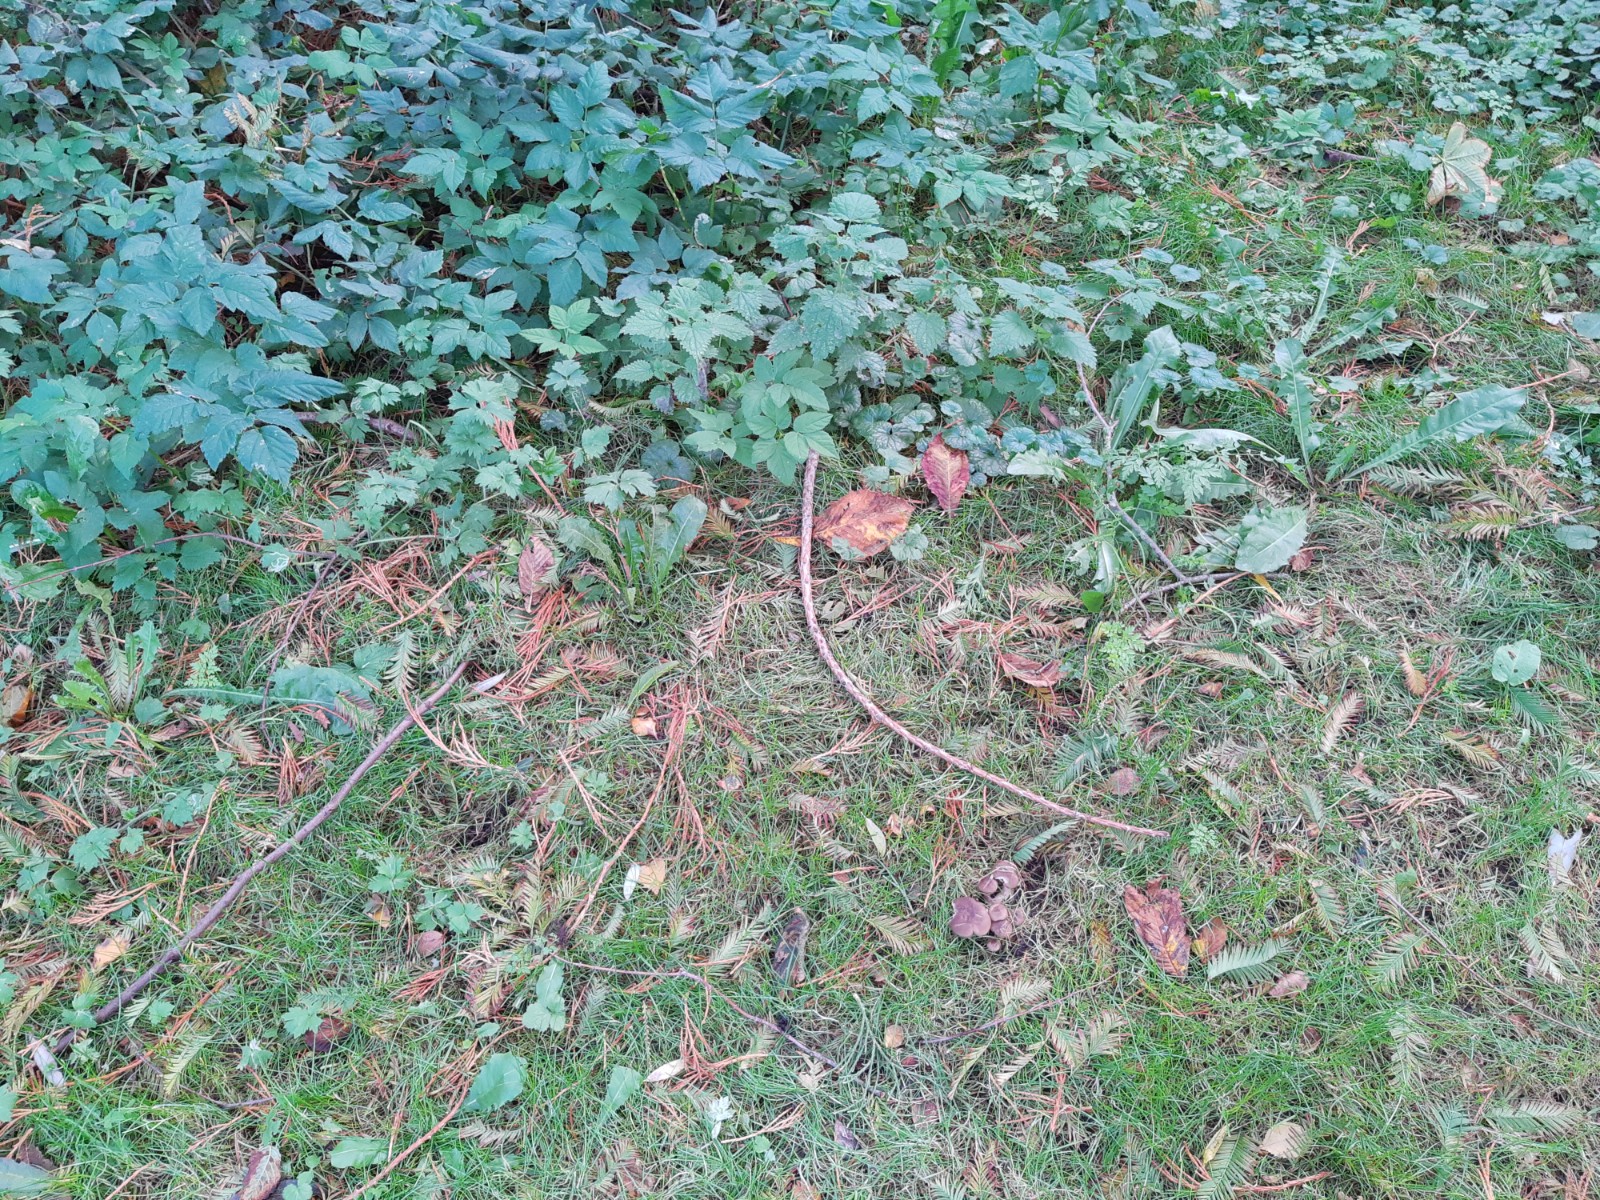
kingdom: Fungi
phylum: Basidiomycota
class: Agaricomycetes
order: Agaricales
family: Lyophyllaceae
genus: Lyophyllum
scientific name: Lyophyllum decastes
